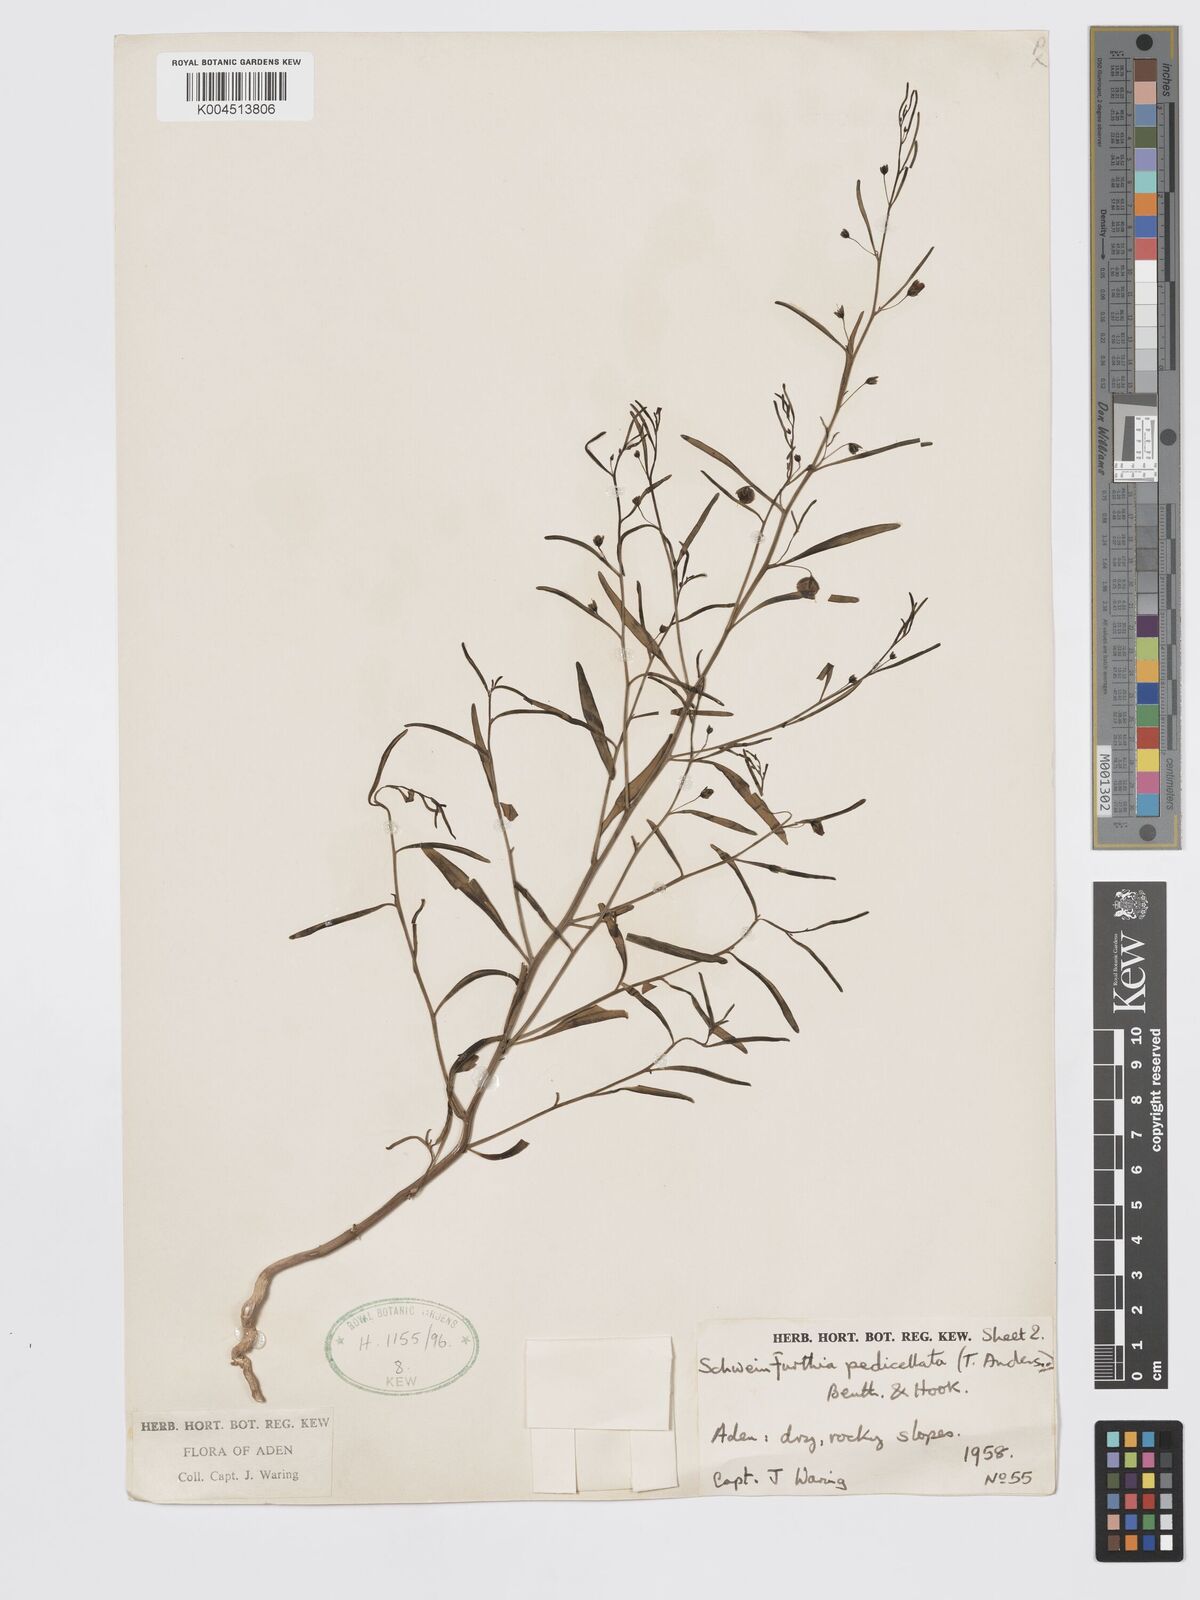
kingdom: Plantae
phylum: Tracheophyta
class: Magnoliopsida
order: Lamiales
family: Plantaginaceae
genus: Schweinfurthia
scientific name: Schweinfurthia pedicellata
